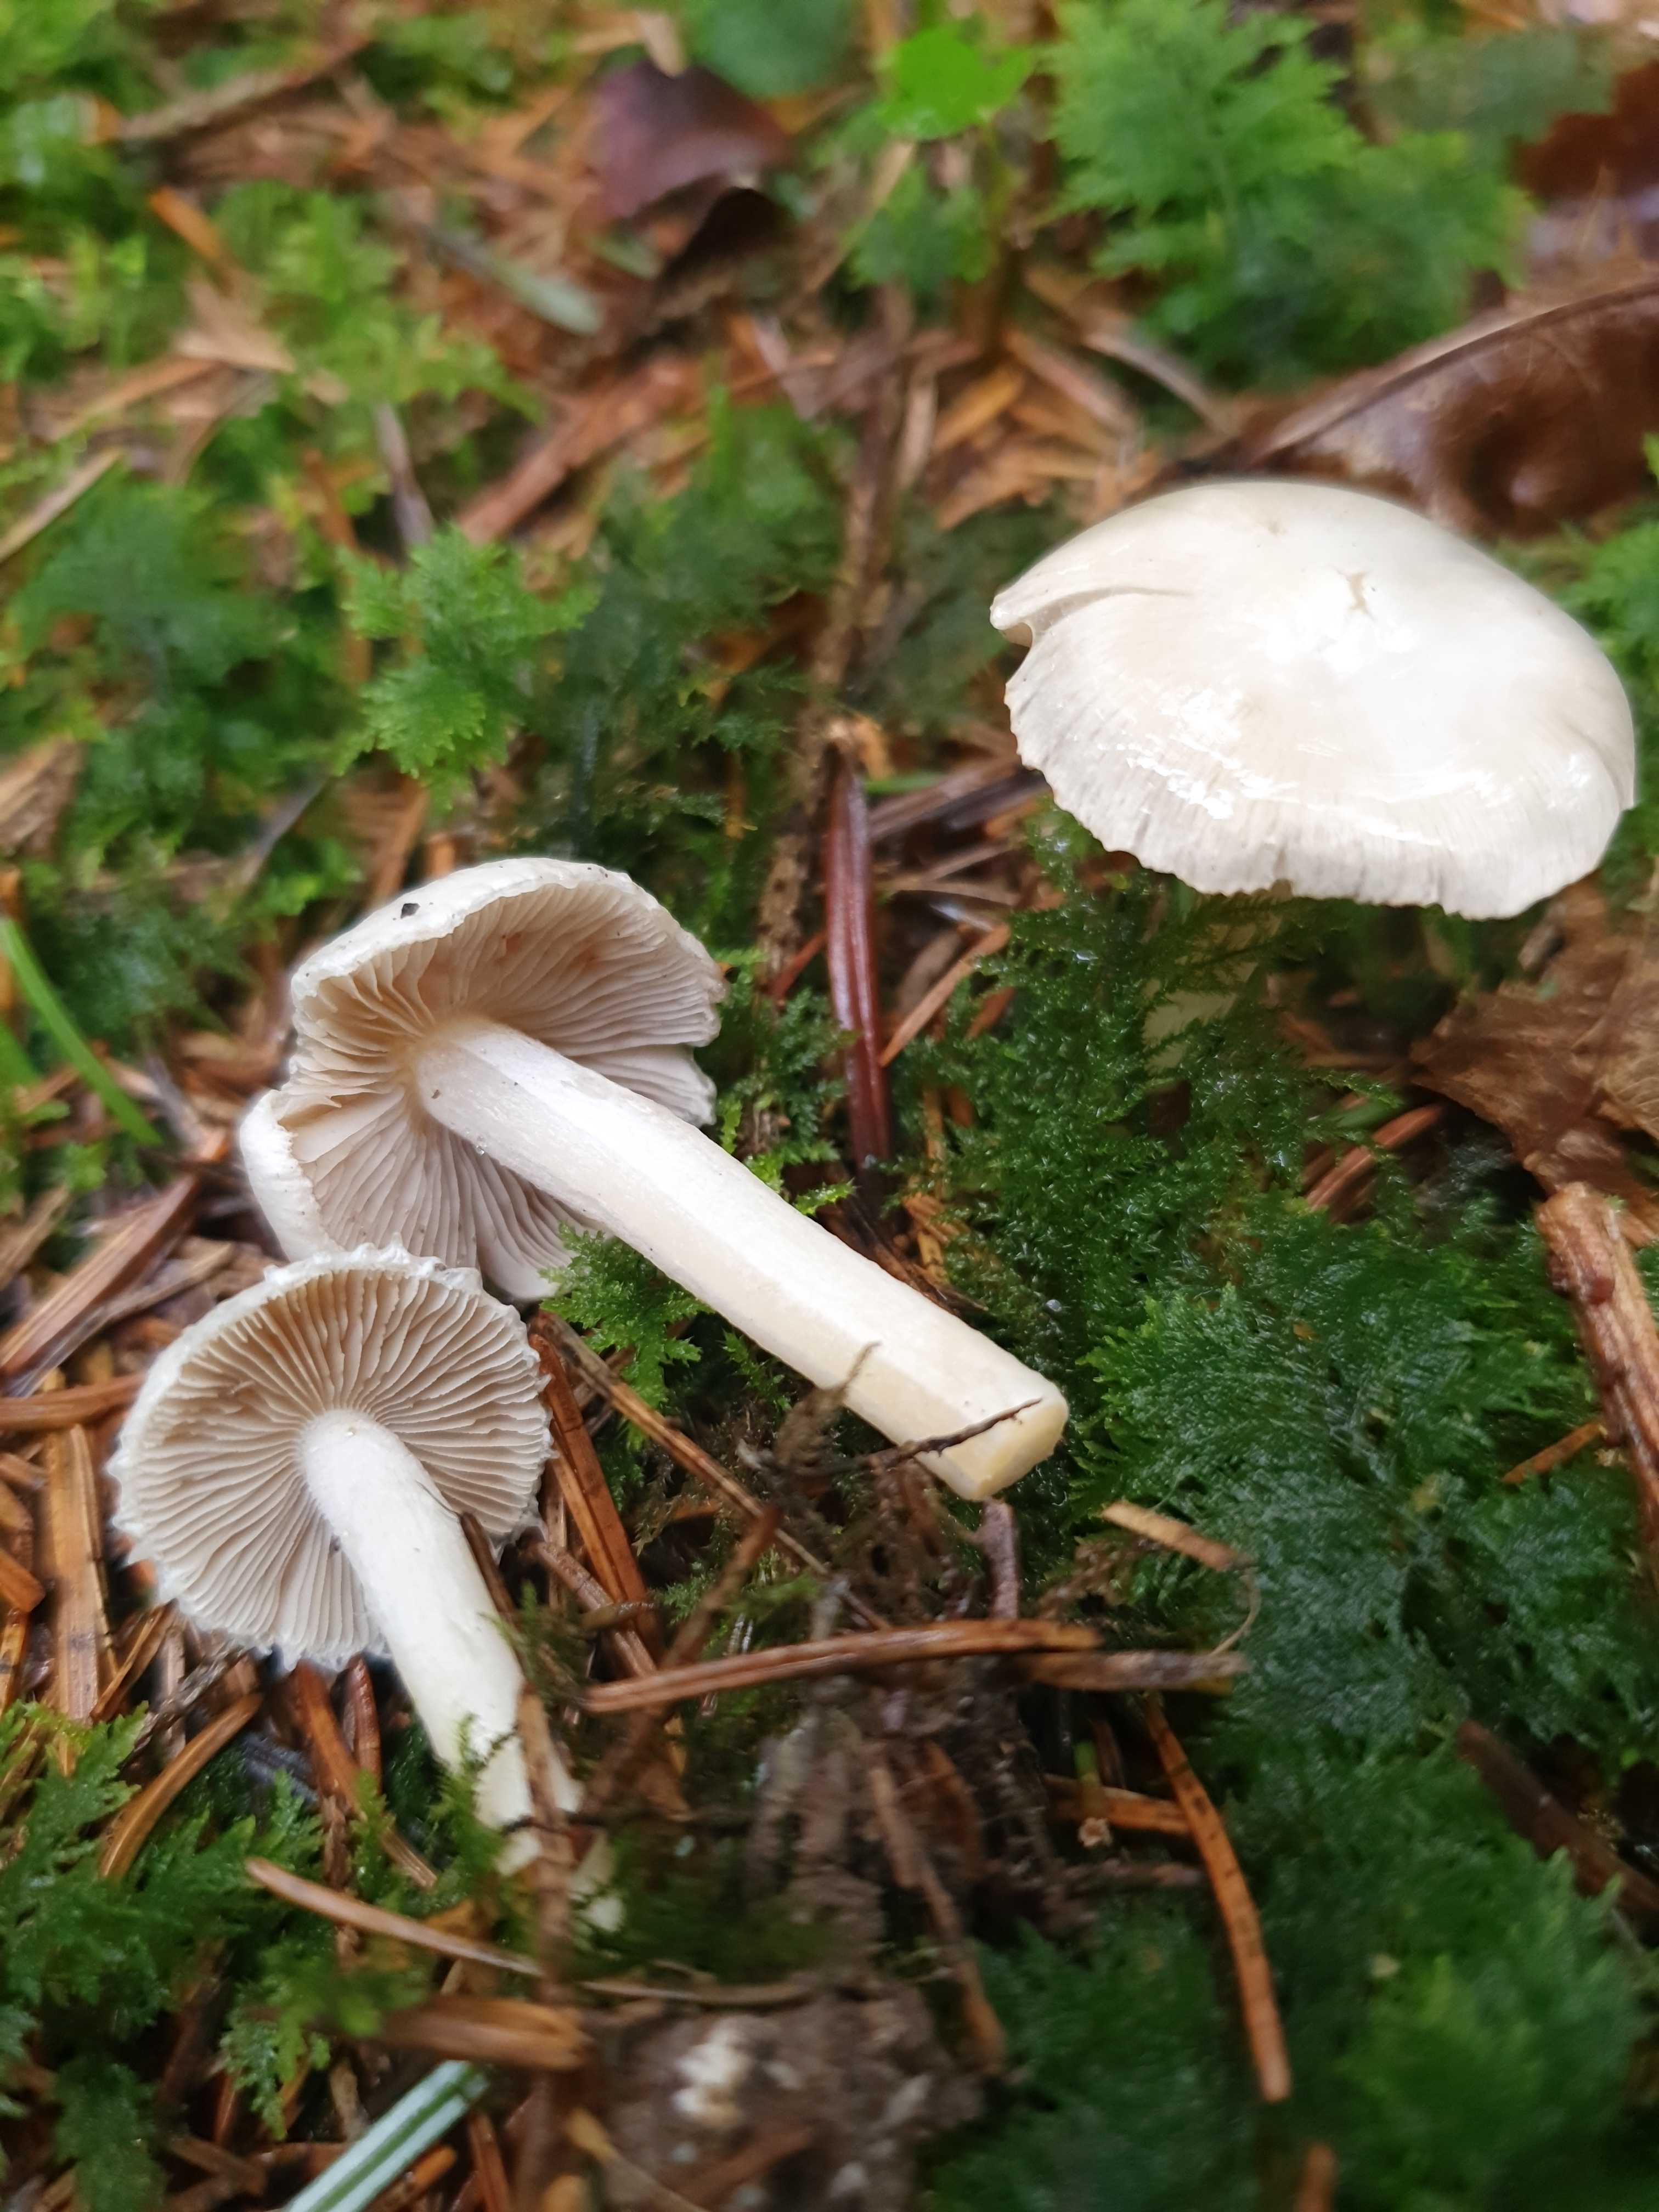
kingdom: Fungi
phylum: Basidiomycota
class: Agaricomycetes
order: Agaricales
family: Inocybaceae
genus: Inocybe
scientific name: Inocybe
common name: almindelig trævlhat
